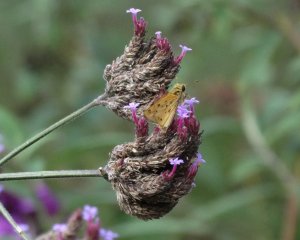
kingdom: Animalia
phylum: Arthropoda
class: Insecta
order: Lepidoptera
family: Hesperiidae
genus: Hylephila
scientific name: Hylephila phyleus
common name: Fiery Skipper
